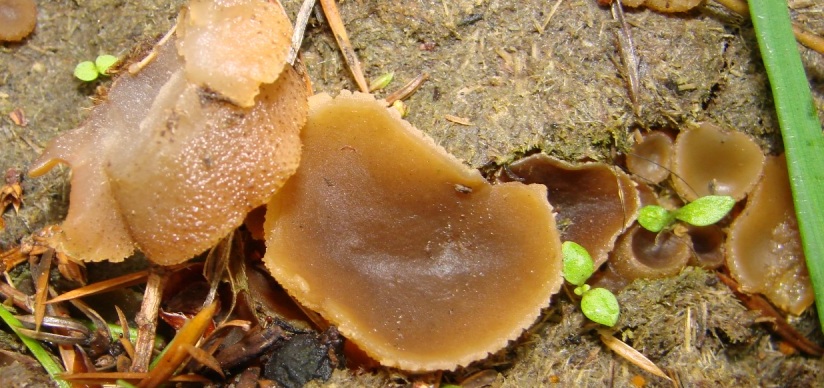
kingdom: Fungi
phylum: Ascomycota
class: Pezizomycetes
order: Pezizales
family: Pezizaceae
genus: Peziza
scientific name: Peziza vesiculosa
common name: blære-bægersvamp
